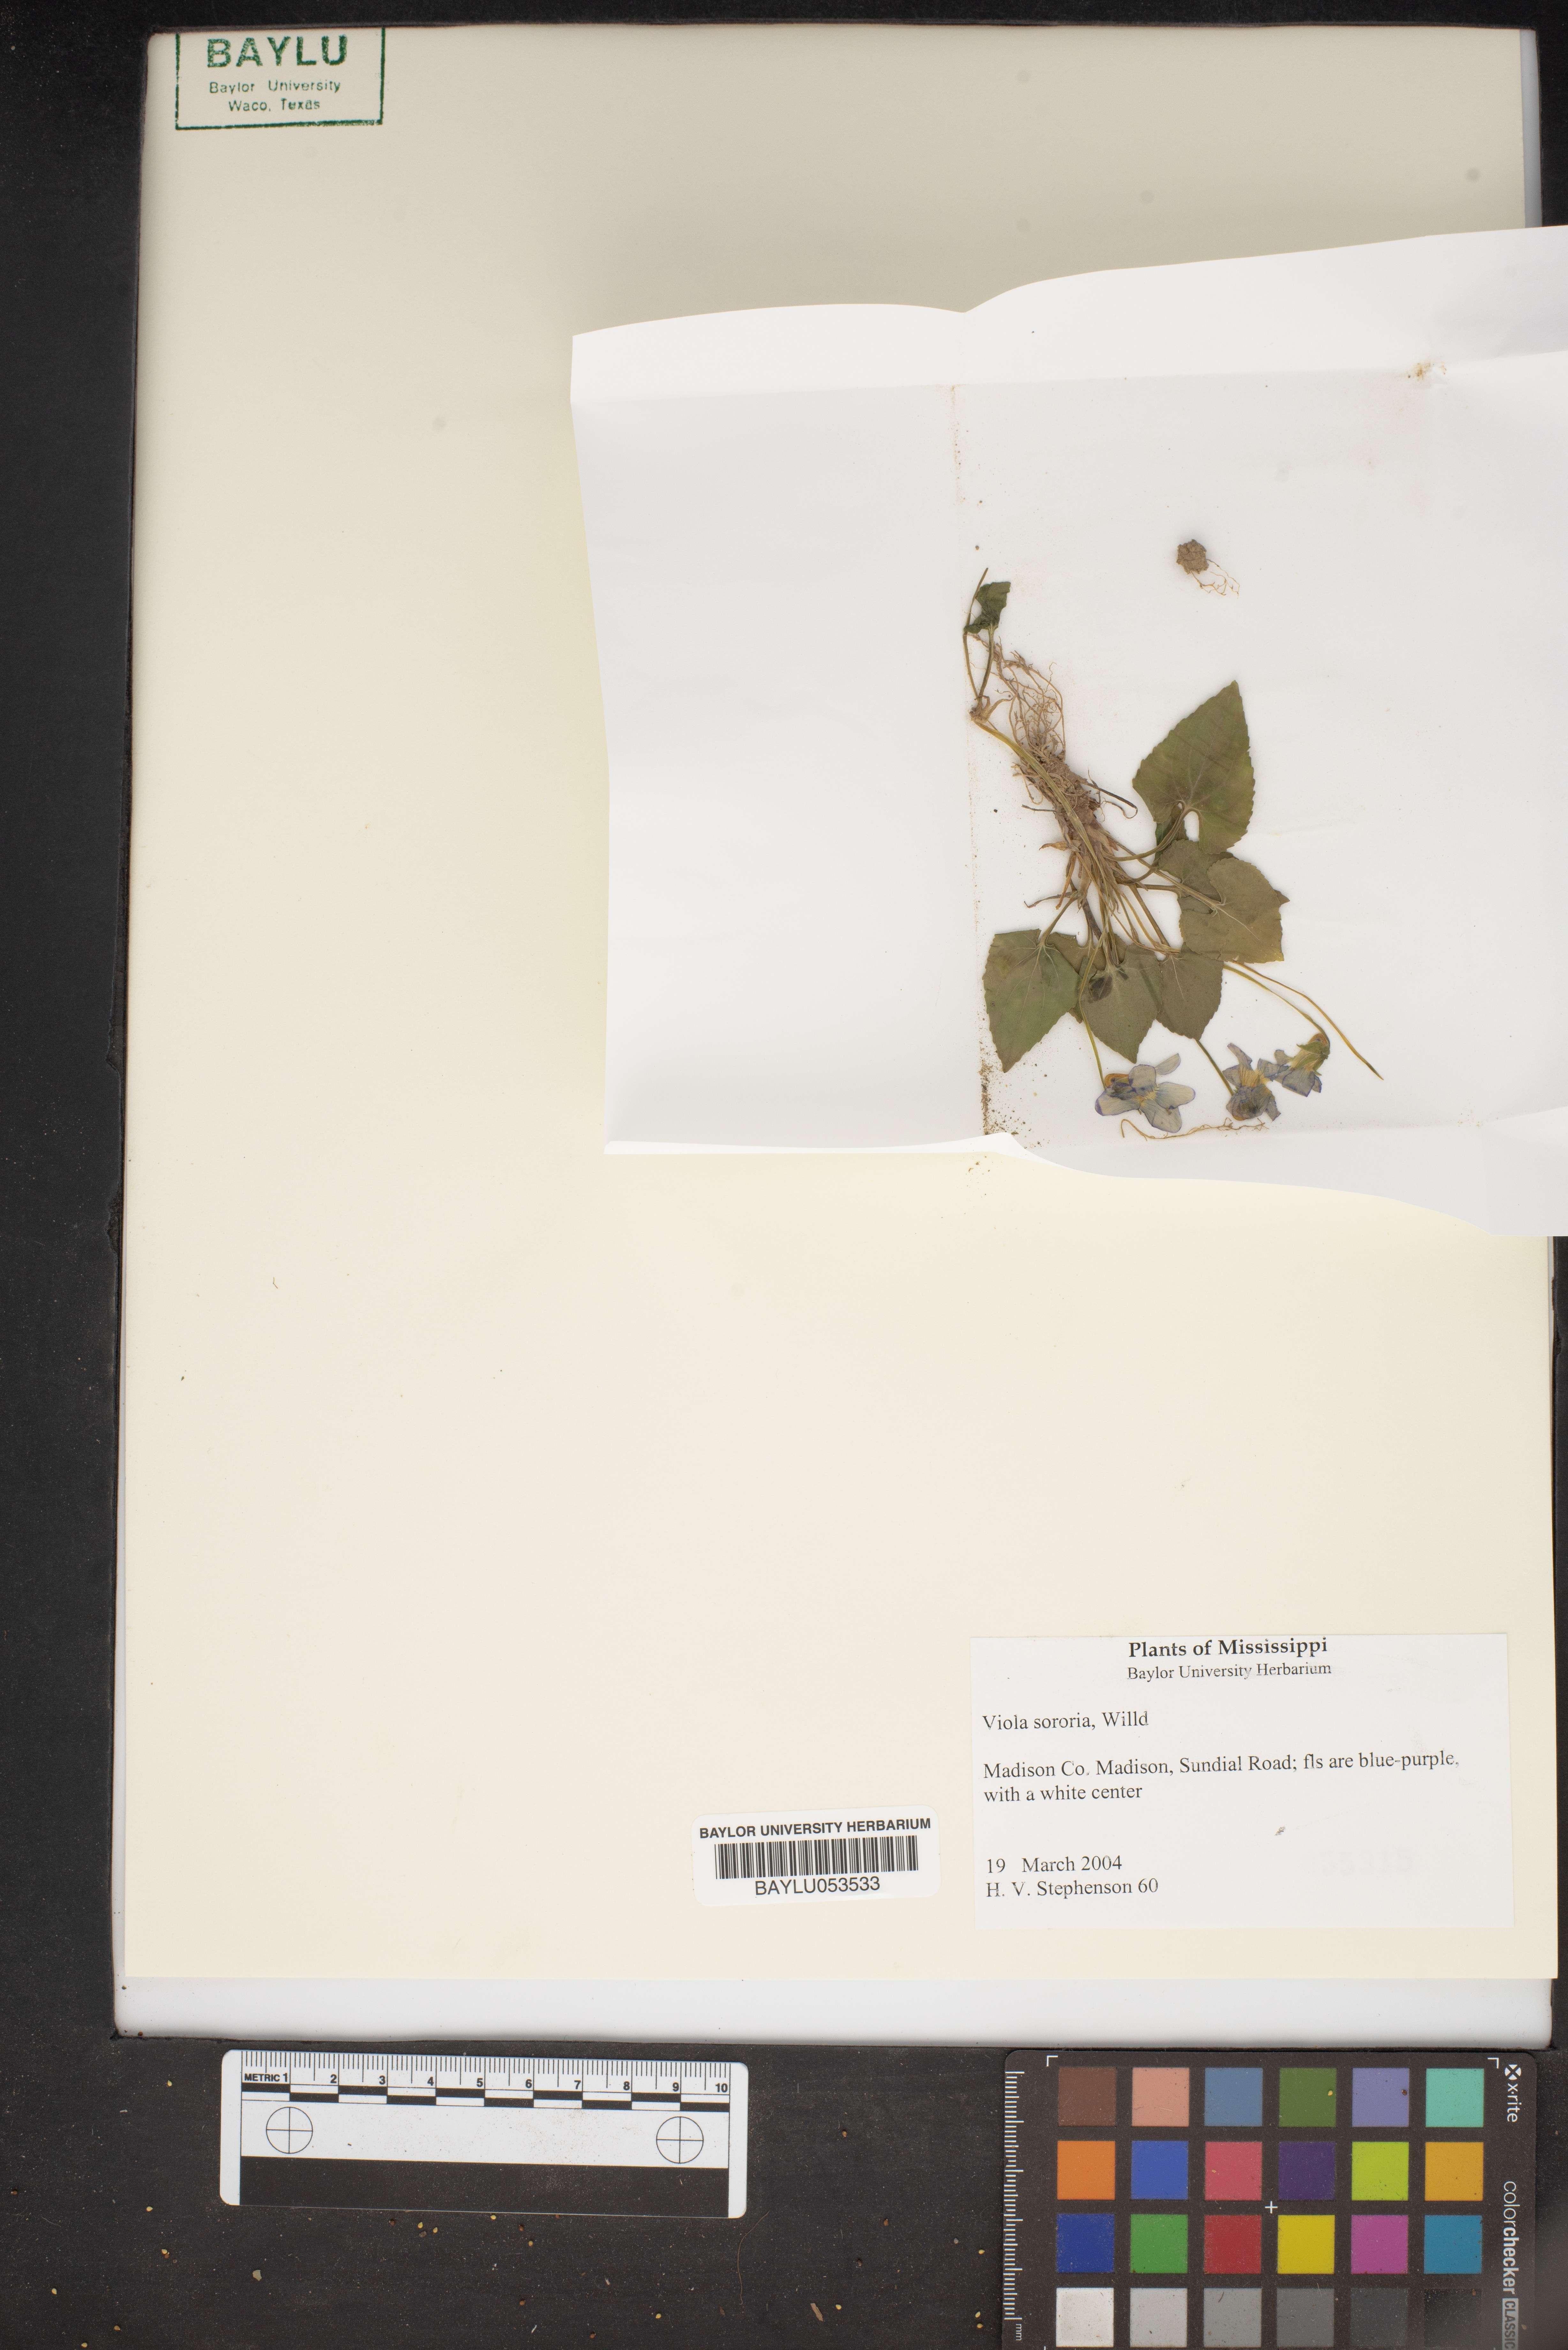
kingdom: Plantae
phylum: Tracheophyta
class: Magnoliopsida
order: Malpighiales
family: Violaceae
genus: Viola
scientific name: Viola sororia
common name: Dooryard violet
